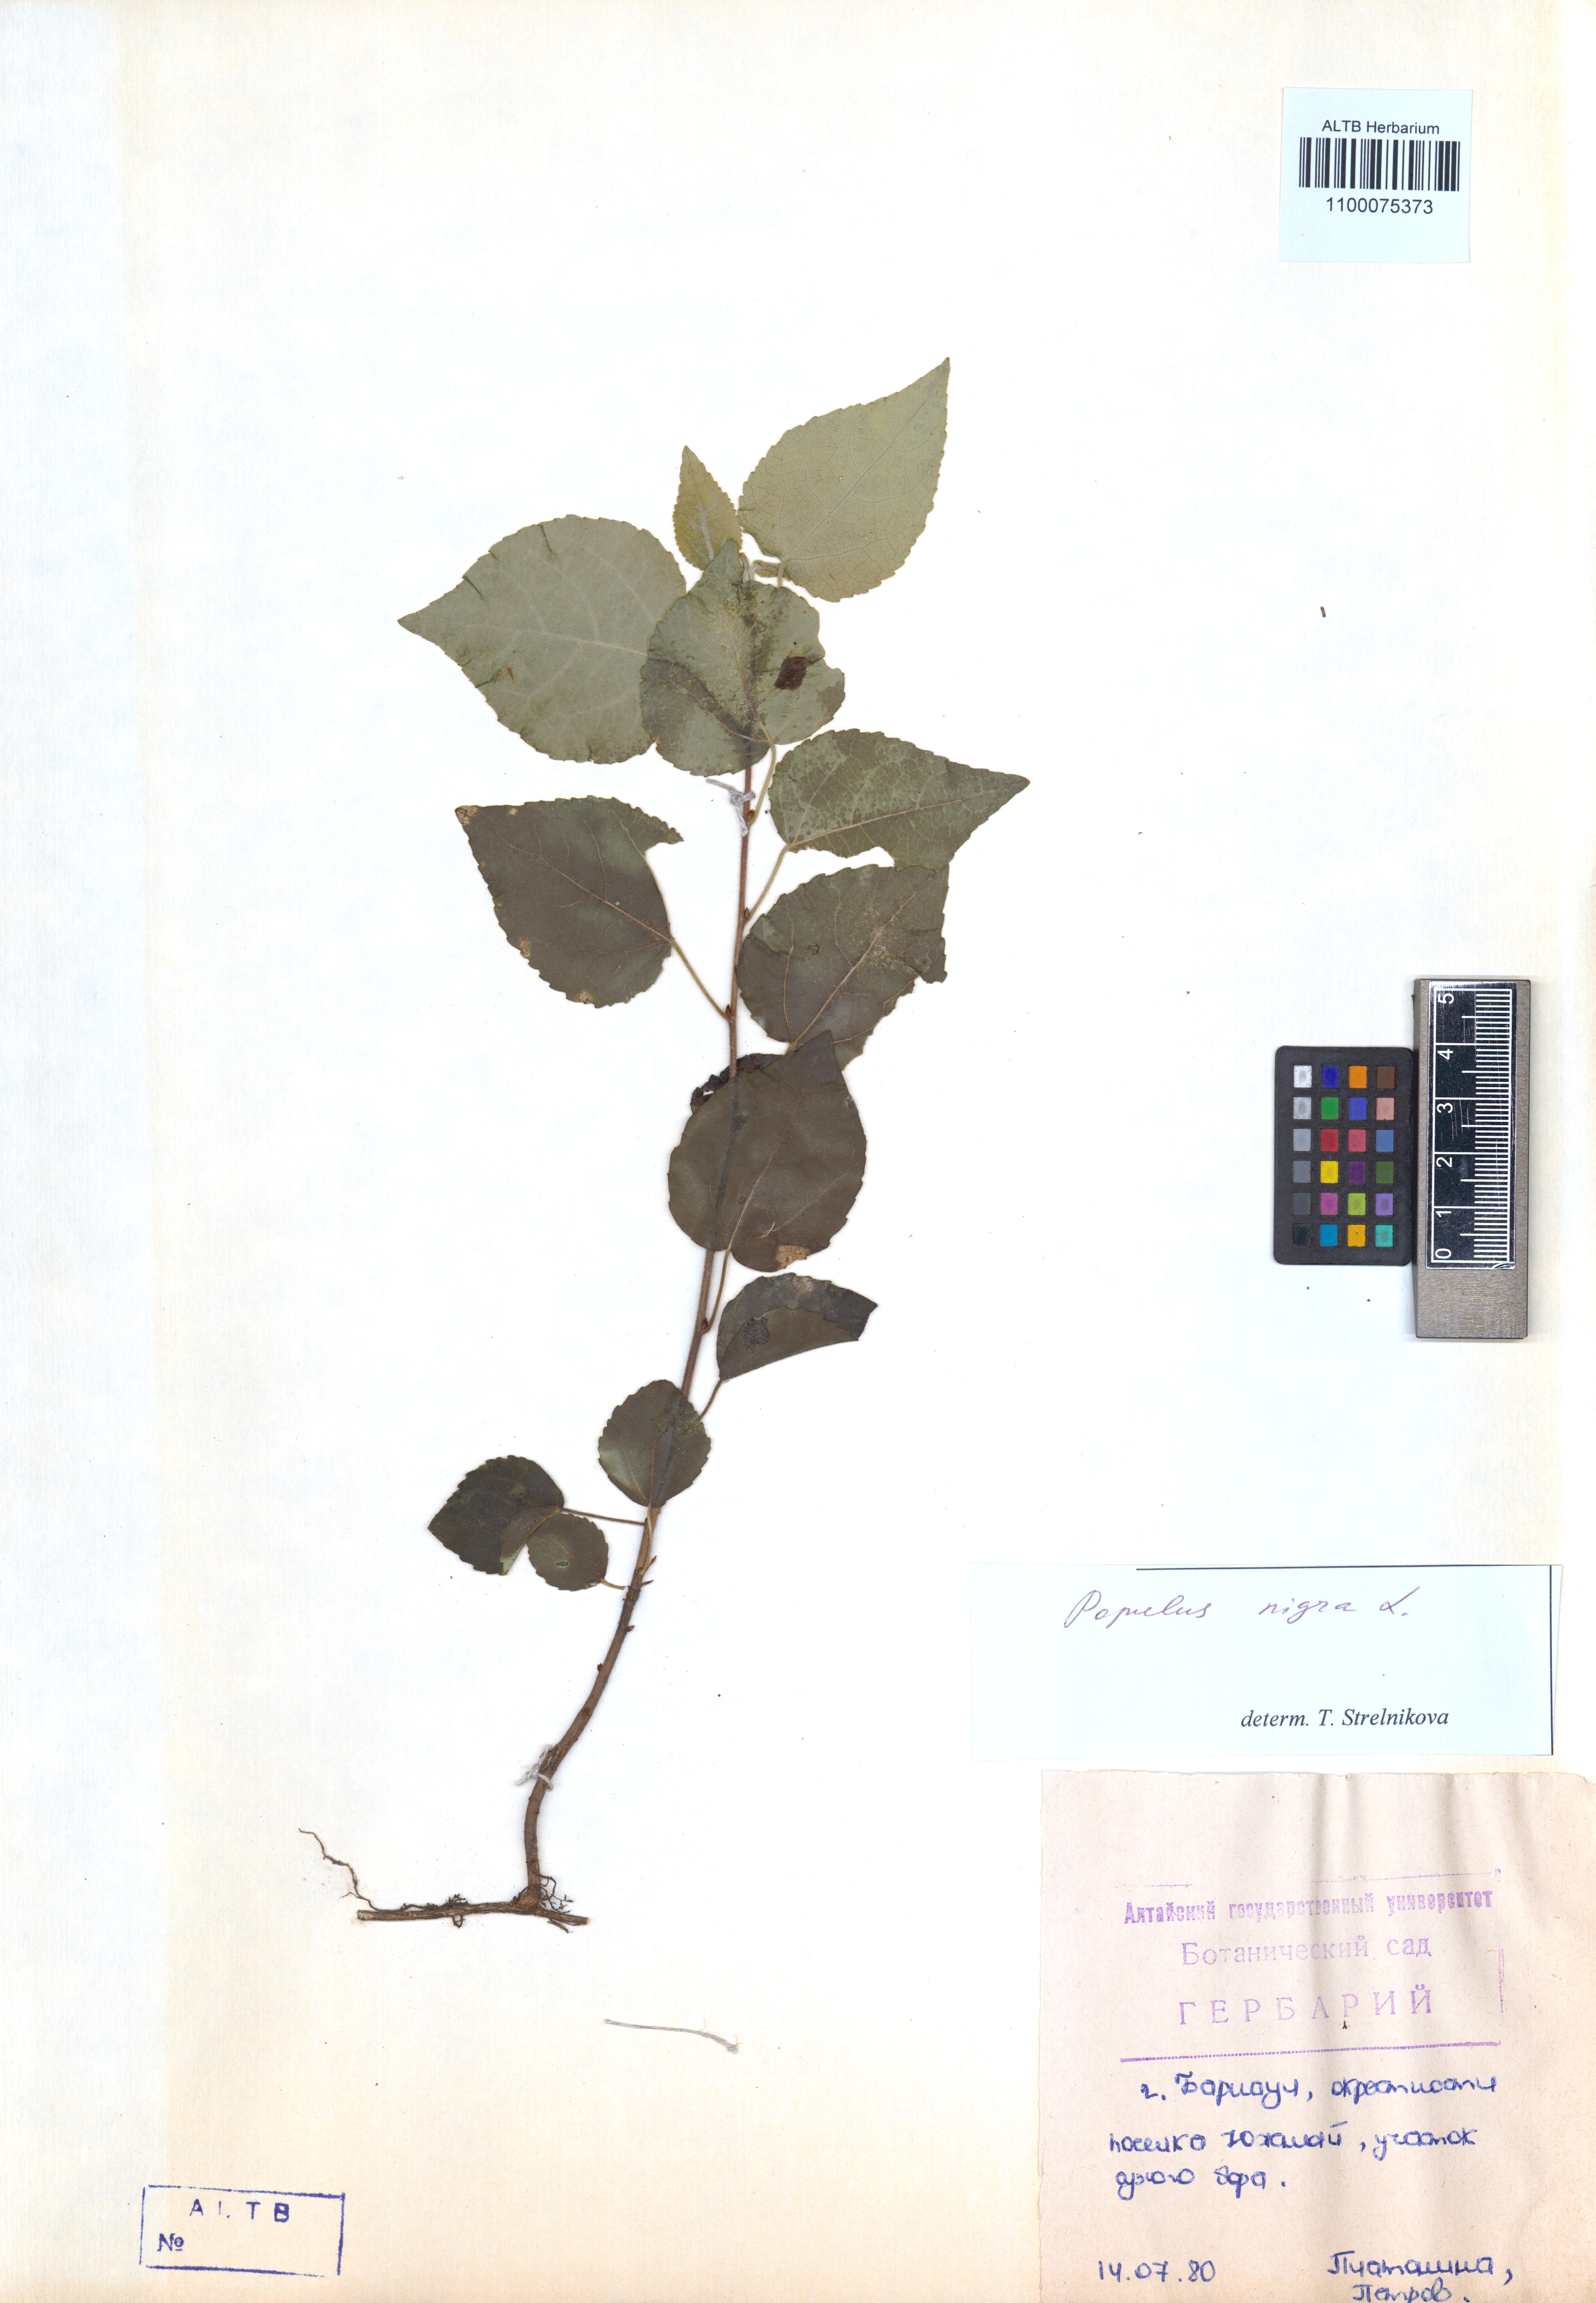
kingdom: Plantae
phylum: Tracheophyta
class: Magnoliopsida
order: Malpighiales
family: Salicaceae
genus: Populus
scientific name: Populus nigra
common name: Black poplar
